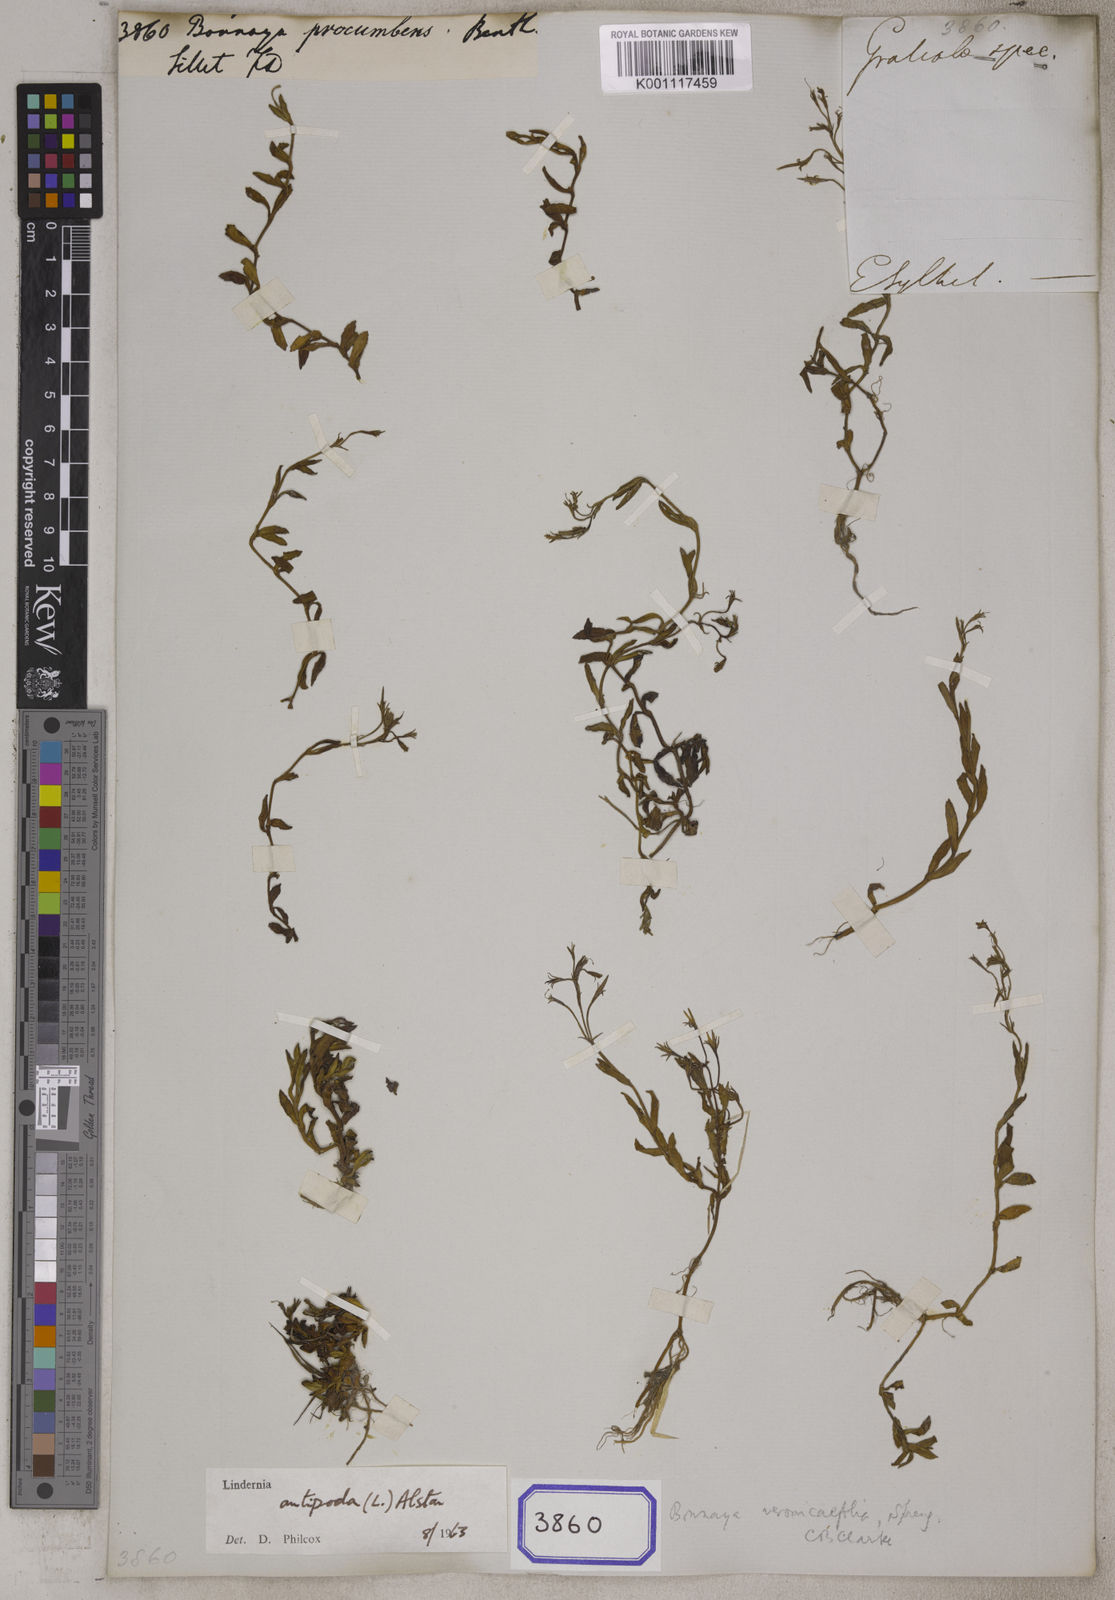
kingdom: Plantae
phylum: Tracheophyta
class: Magnoliopsida
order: Lamiales
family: Linderniaceae
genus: Bonnaya
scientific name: Bonnaya
